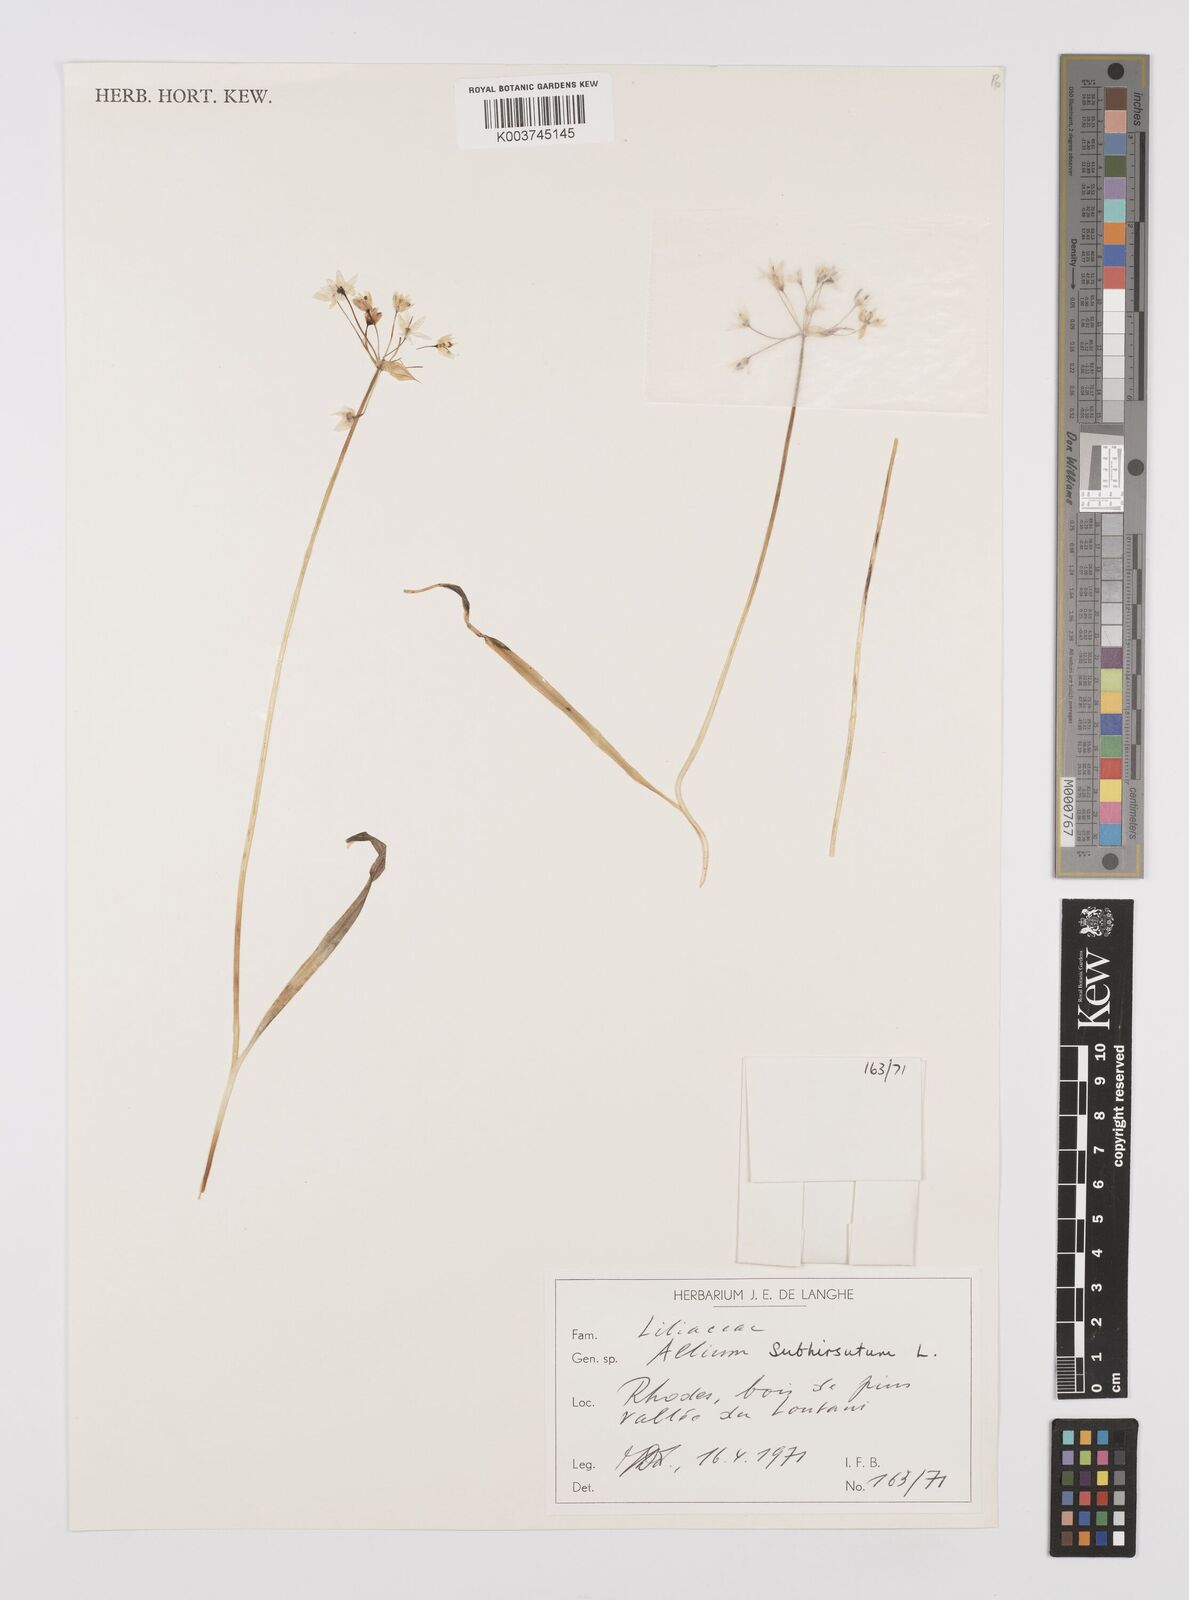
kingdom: Plantae
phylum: Tracheophyta
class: Liliopsida
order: Asparagales
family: Amaryllidaceae
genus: Allium
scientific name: Allium subhirsutum
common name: Hairy garlic
